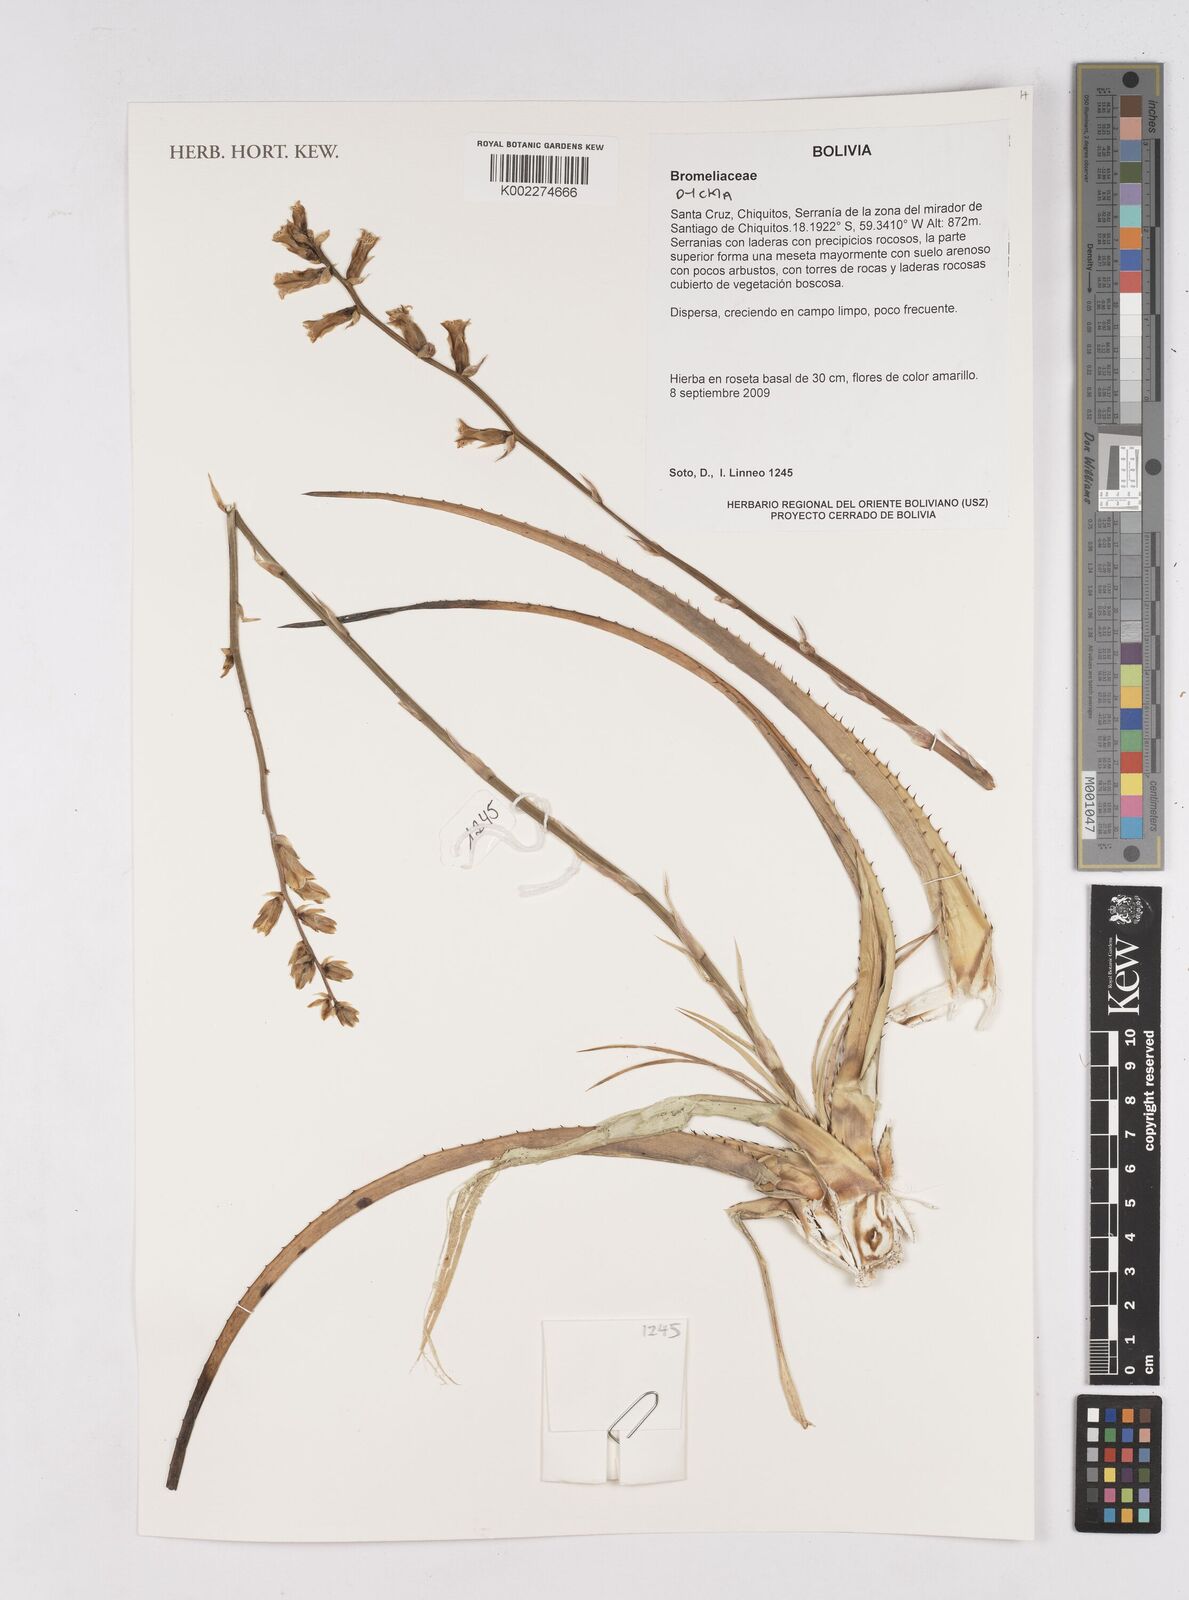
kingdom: Plantae
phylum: Tracheophyta
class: Liliopsida
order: Poales
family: Bromeliaceae
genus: Dyckia
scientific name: Dyckia
